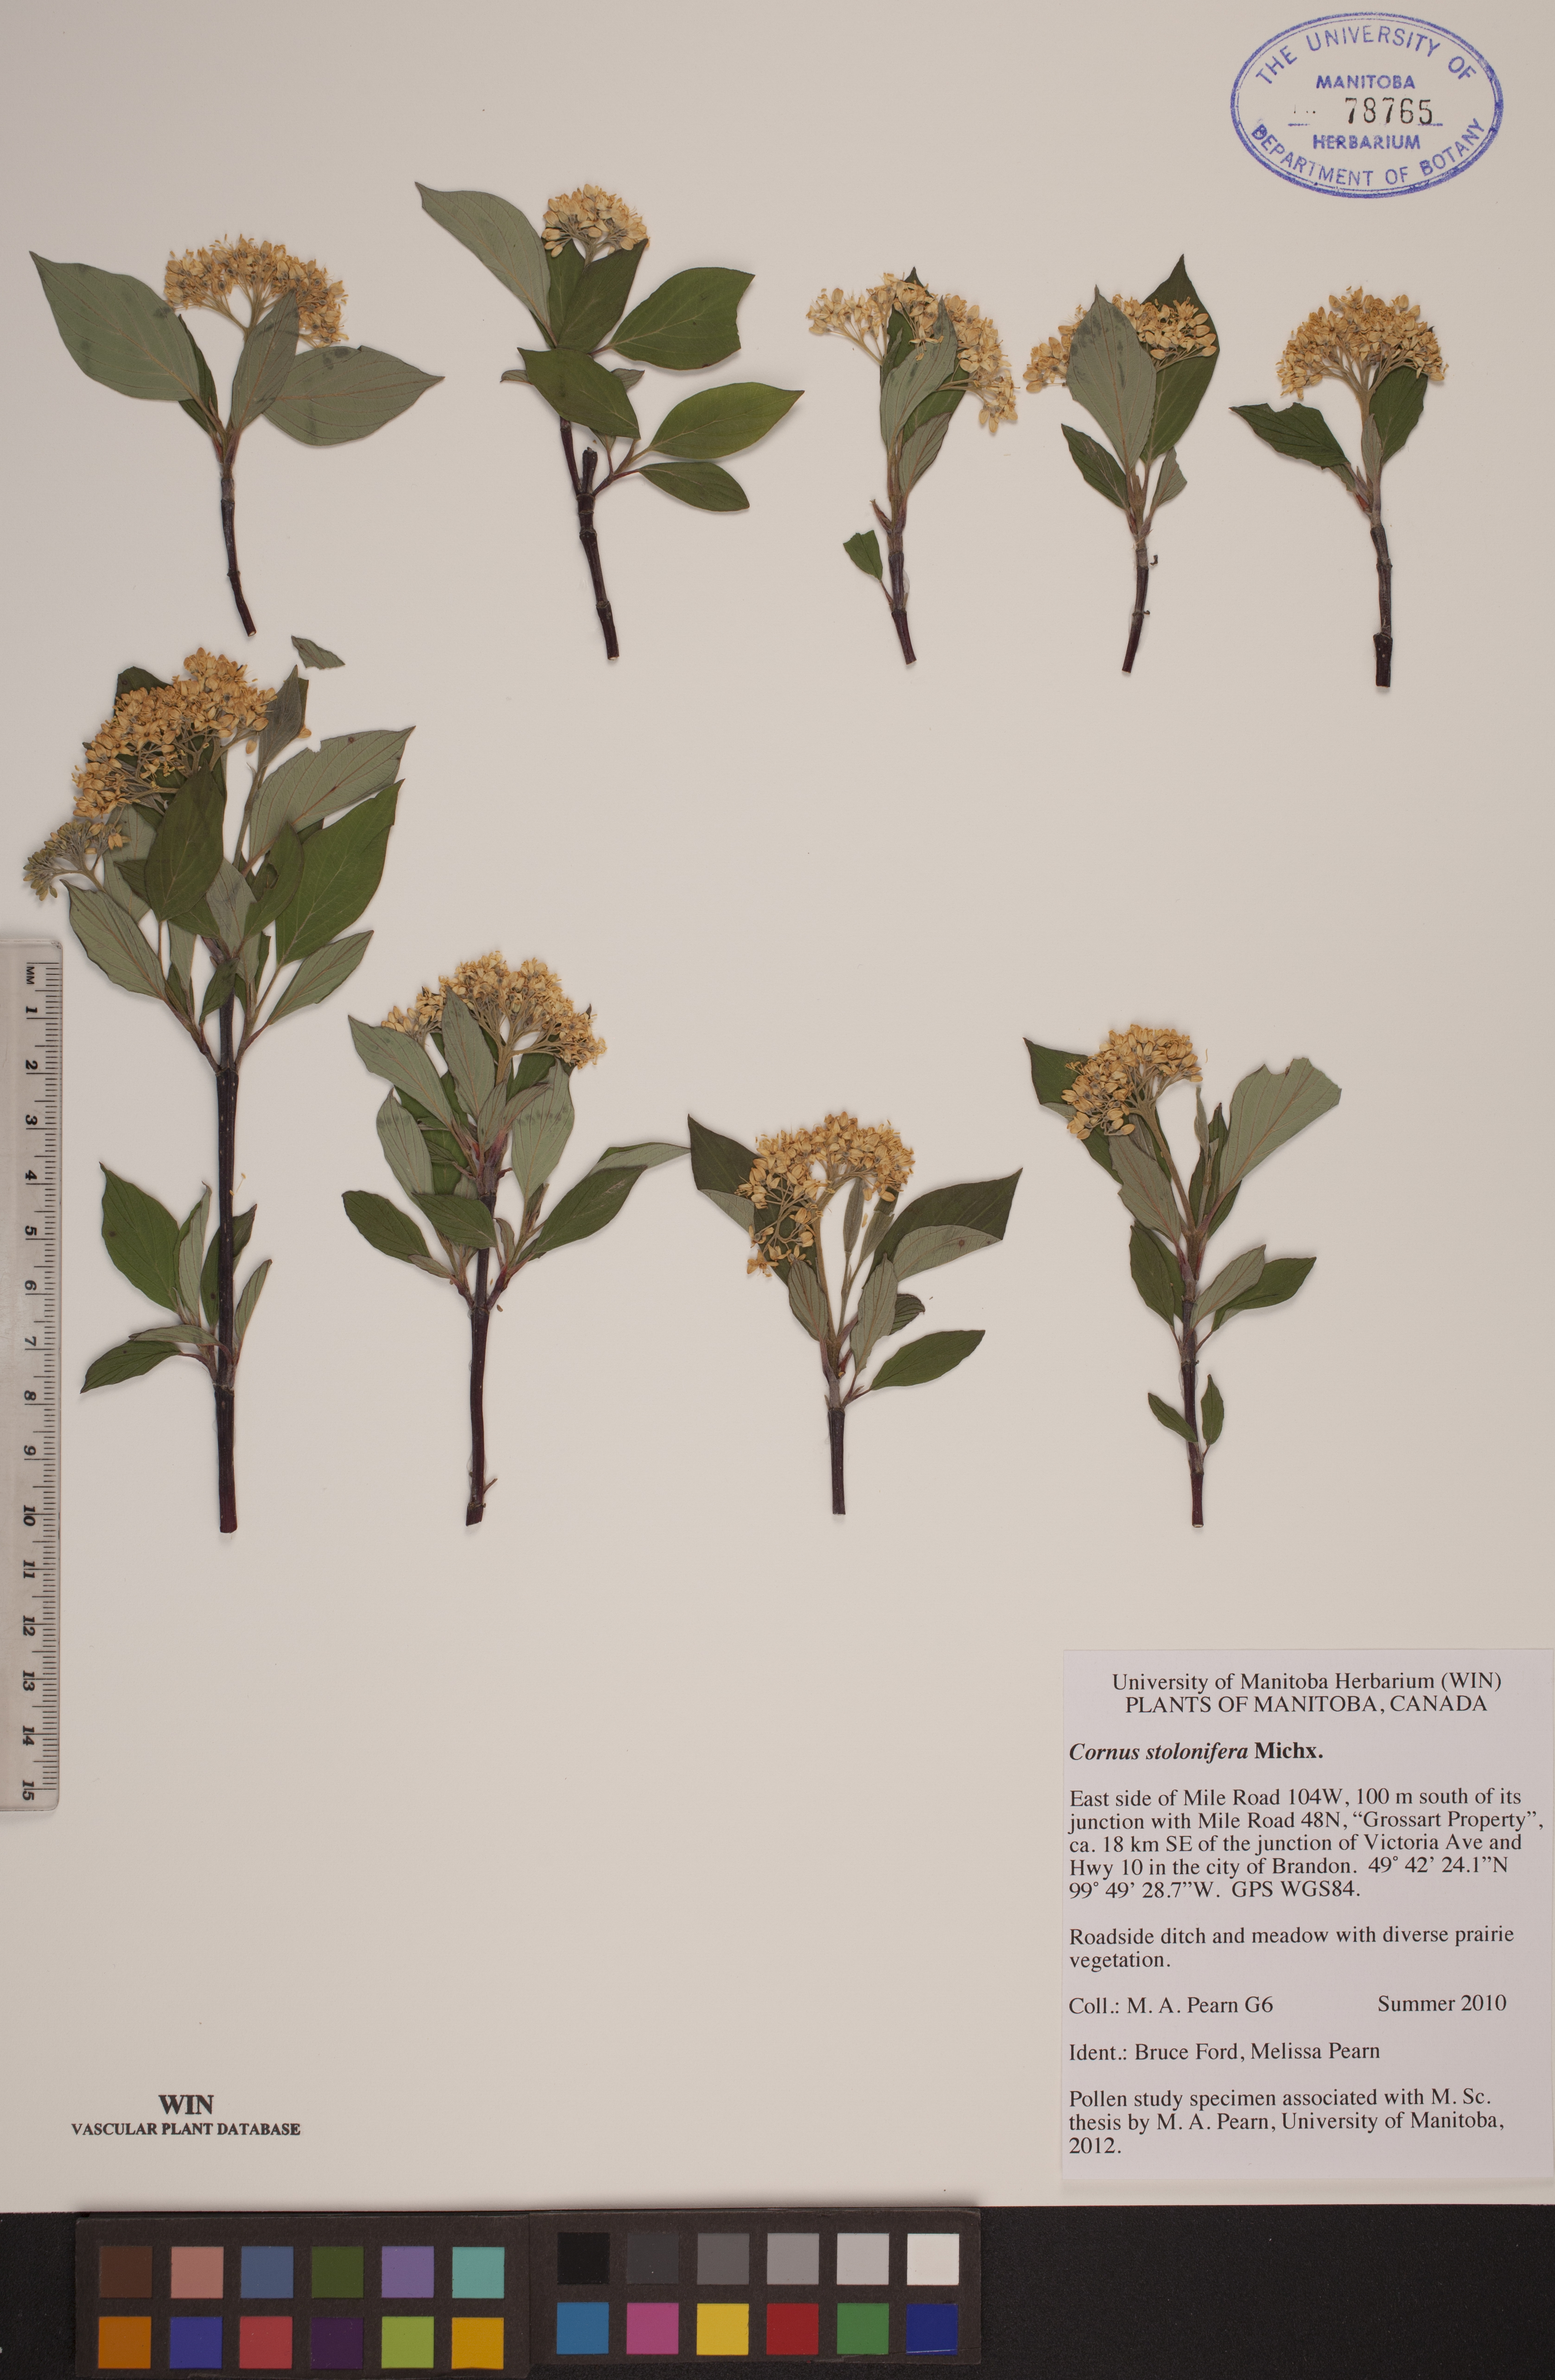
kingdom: Plantae
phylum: Tracheophyta
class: Magnoliopsida
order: Cornales
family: Cornaceae
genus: Cornus
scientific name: Cornus sericea
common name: Red-osier dogwood
